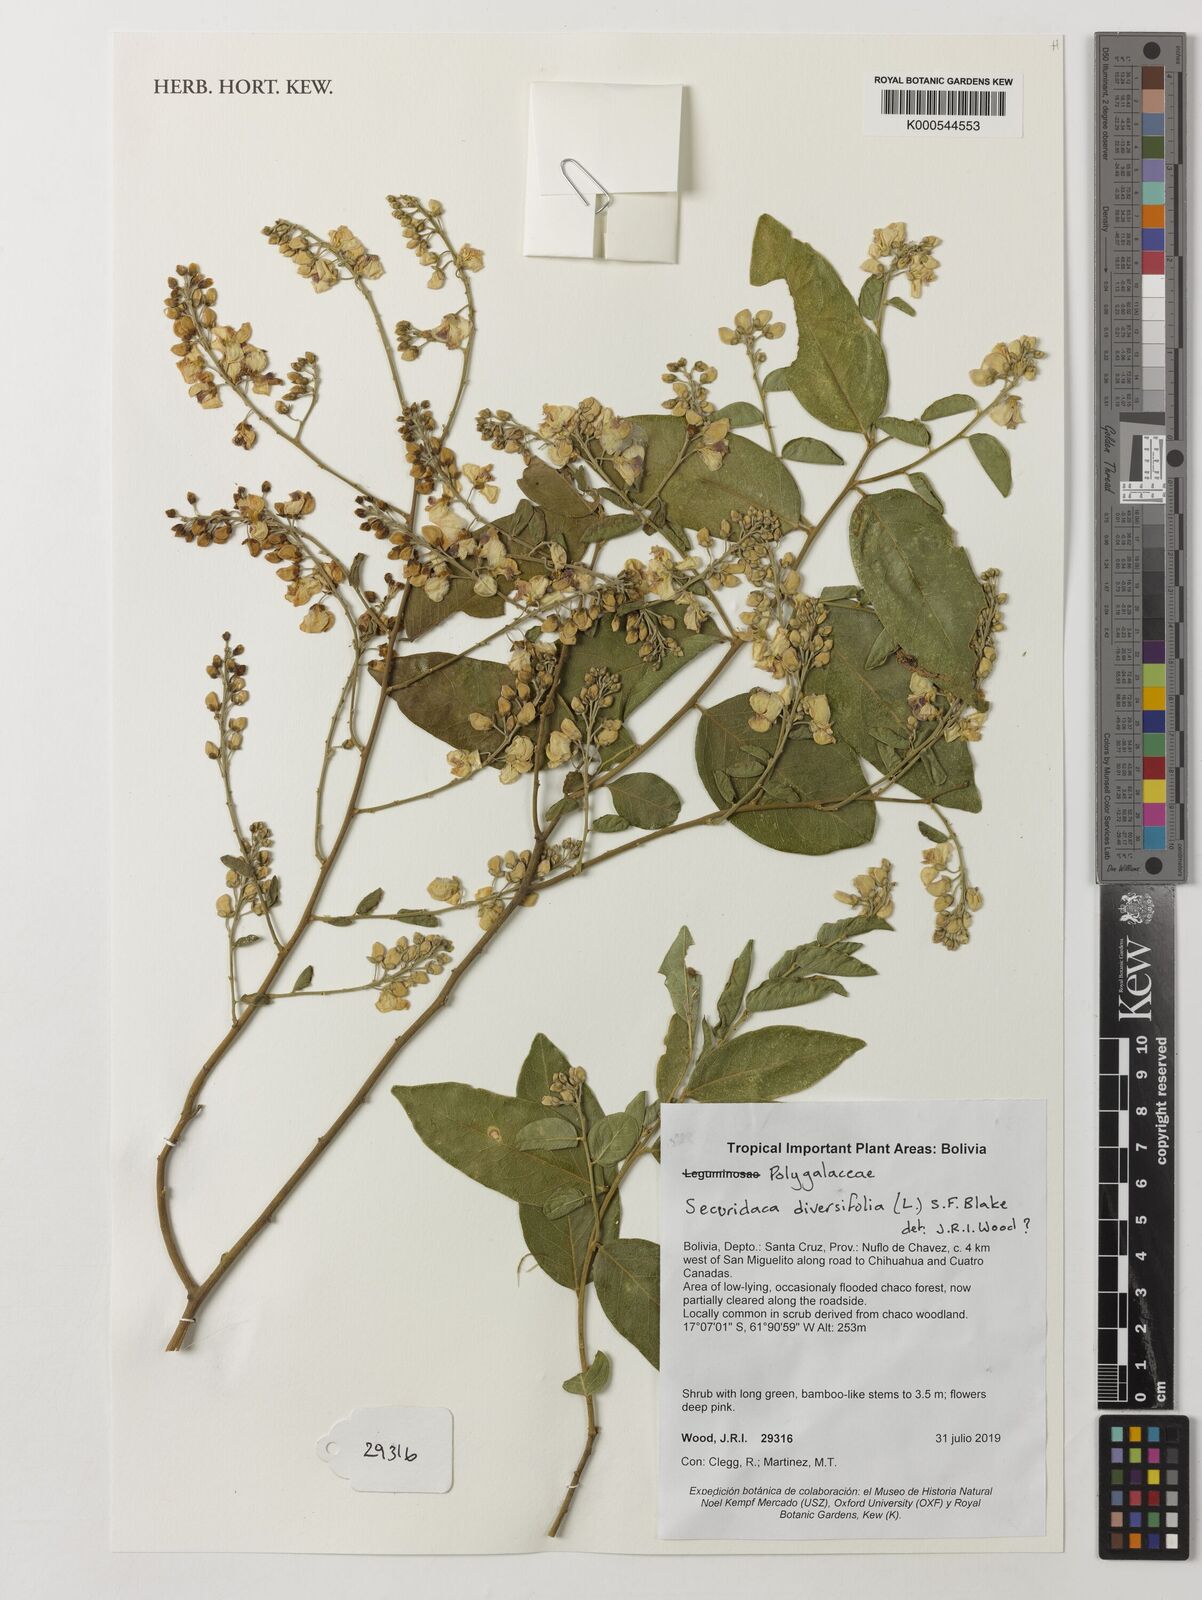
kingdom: Plantae
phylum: Tracheophyta
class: Magnoliopsida
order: Fabales
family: Polygalaceae
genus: Securidaca
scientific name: Securidaca diversifolia
